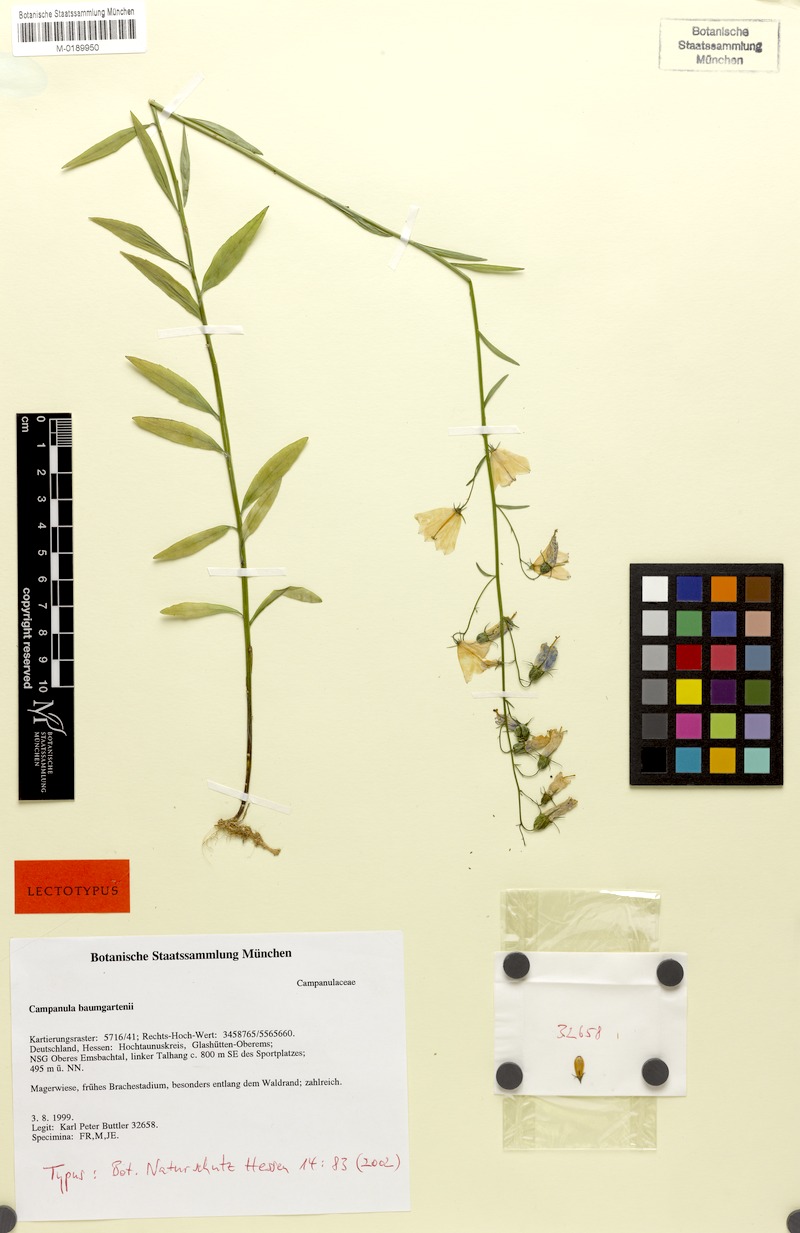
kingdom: Plantae
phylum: Tracheophyta
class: Magnoliopsida
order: Asterales
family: Campanulaceae
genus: Campanula
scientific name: Campanula baumgartenii
